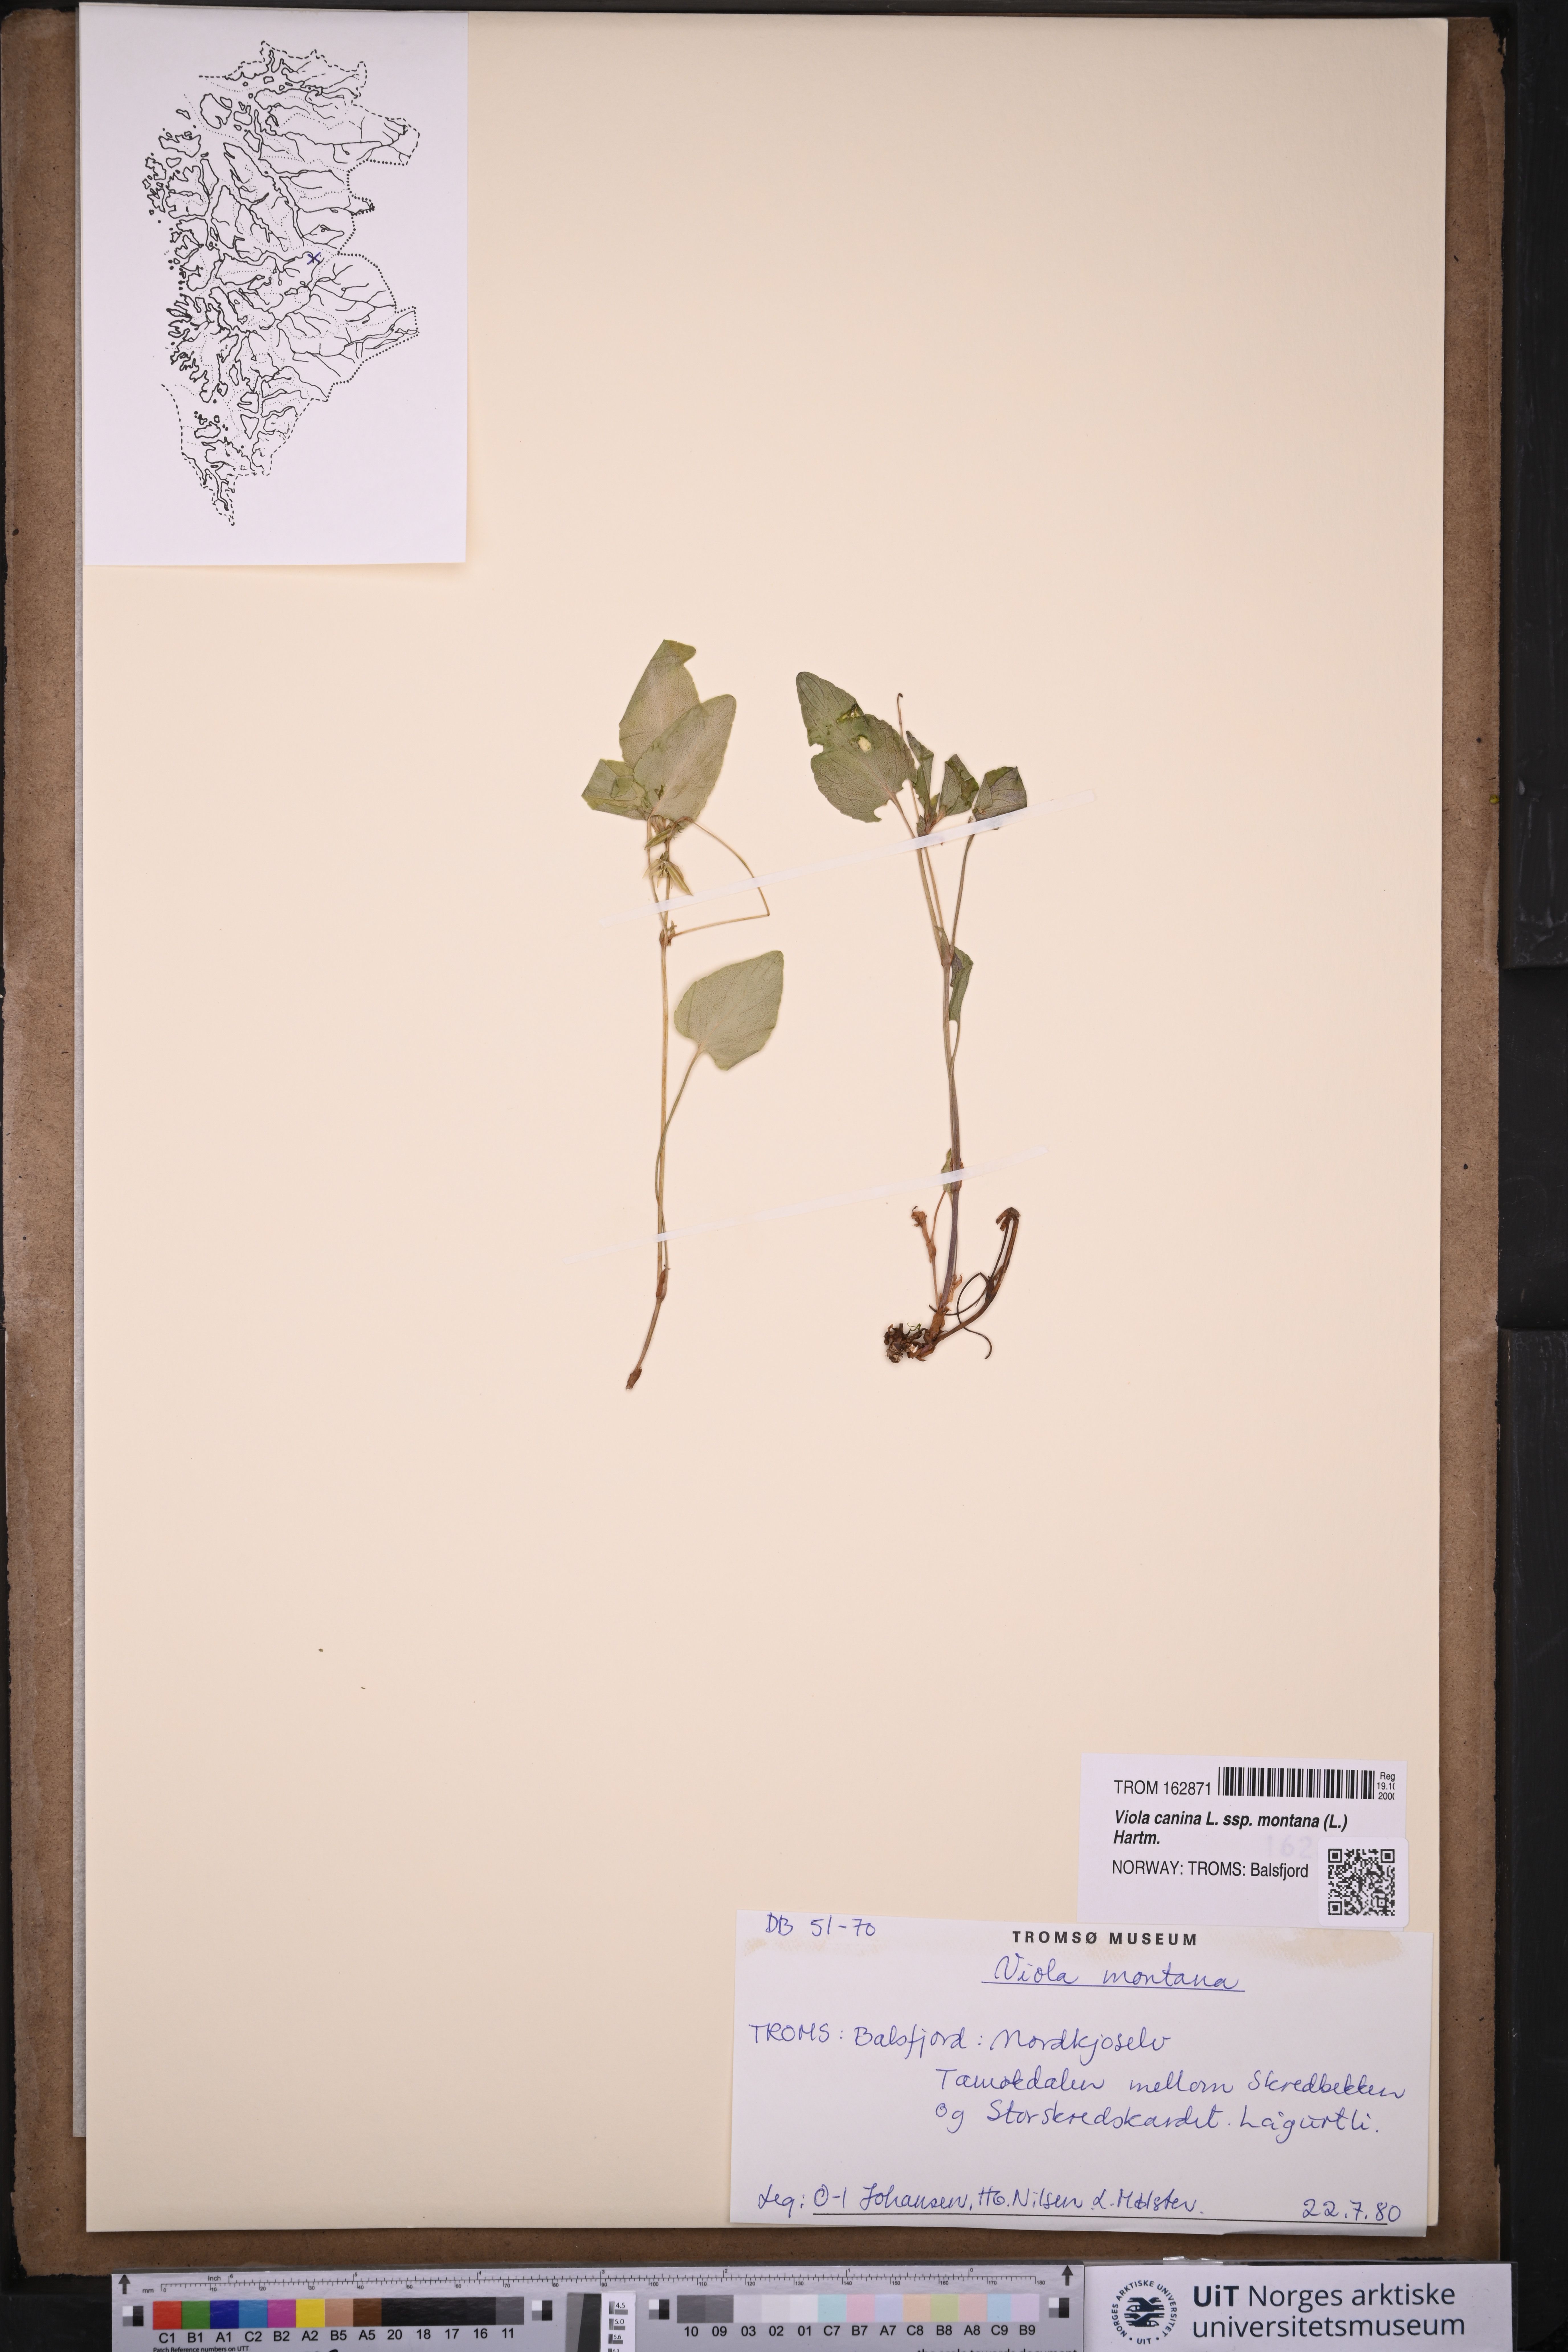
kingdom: Plantae
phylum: Tracheophyta
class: Magnoliopsida
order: Malpighiales
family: Violaceae
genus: Viola
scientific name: Viola ruppii
